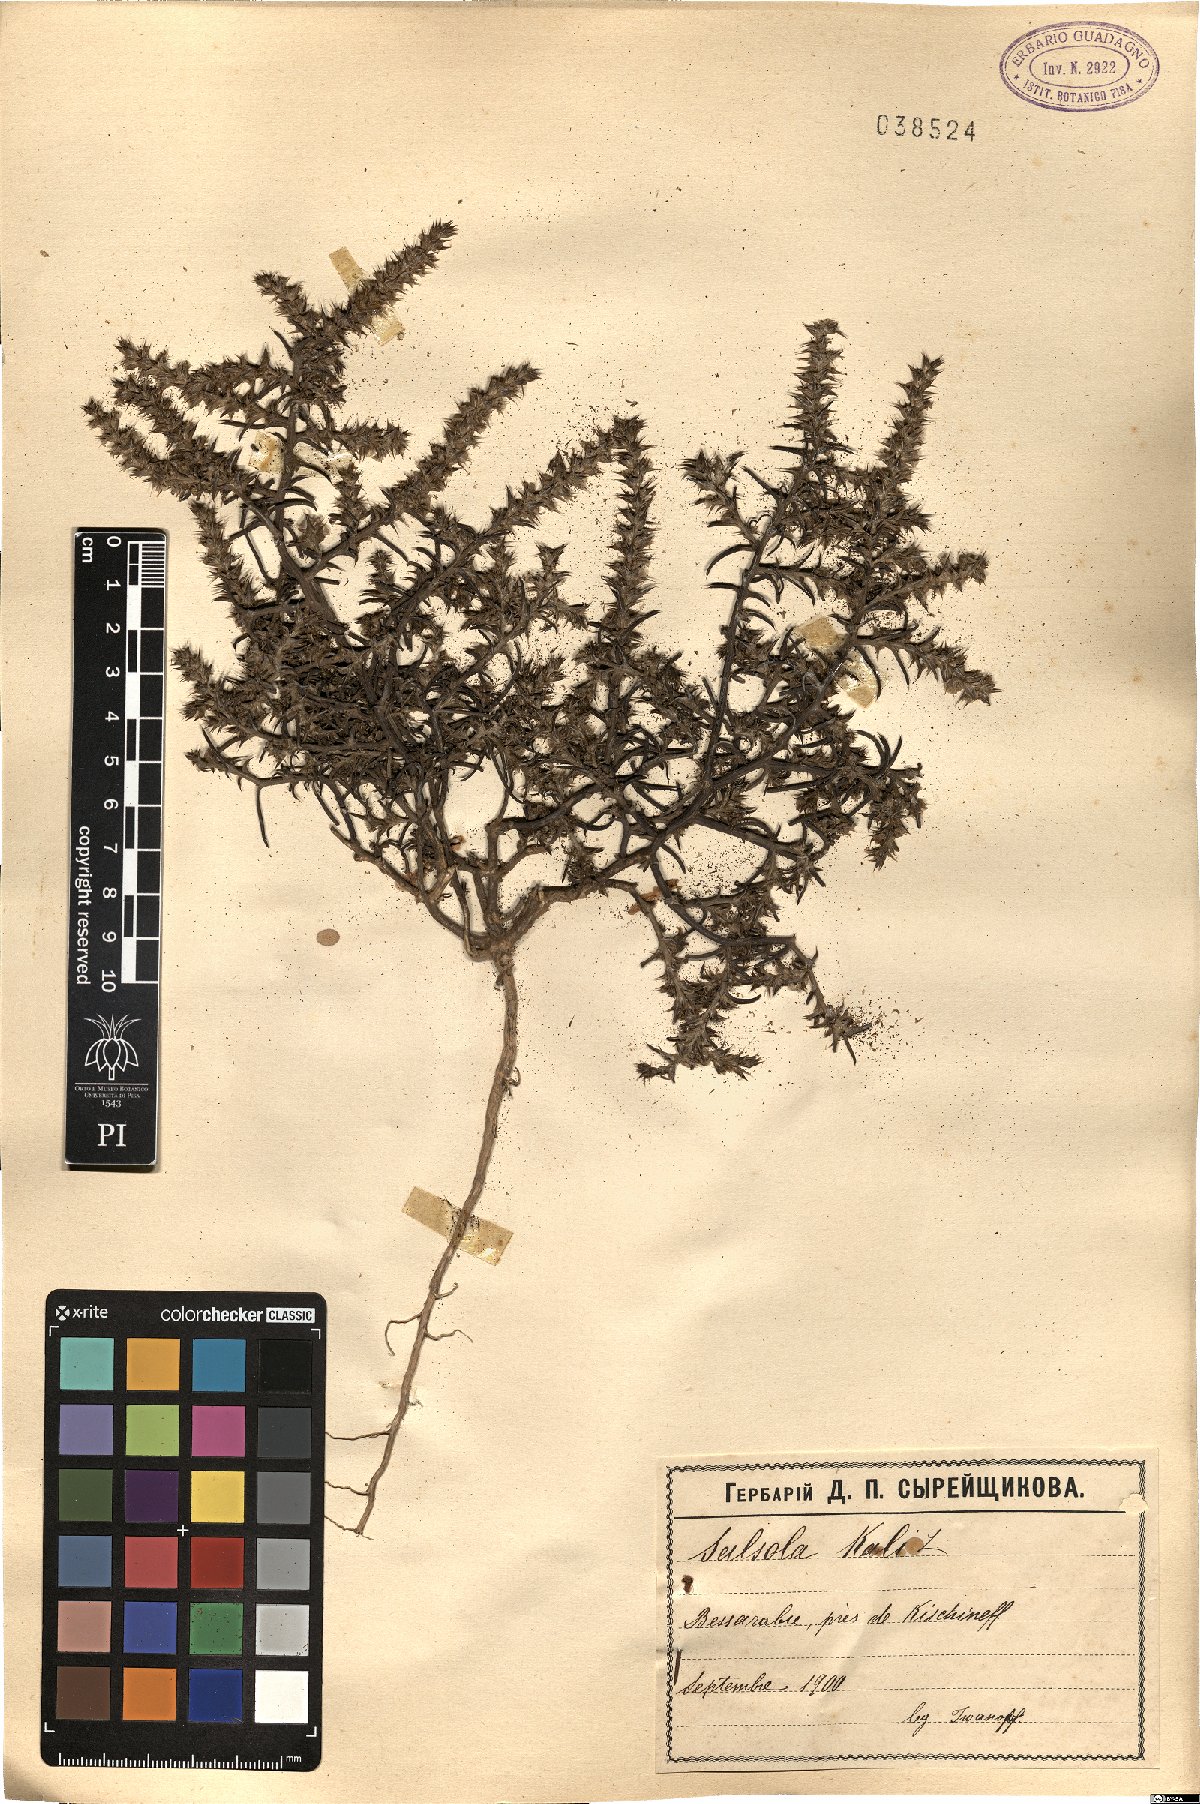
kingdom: Plantae
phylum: Tracheophyta
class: Magnoliopsida
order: Caryophyllales
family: Amaranthaceae
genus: Salsola
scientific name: Salsola kali
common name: Saltwort
